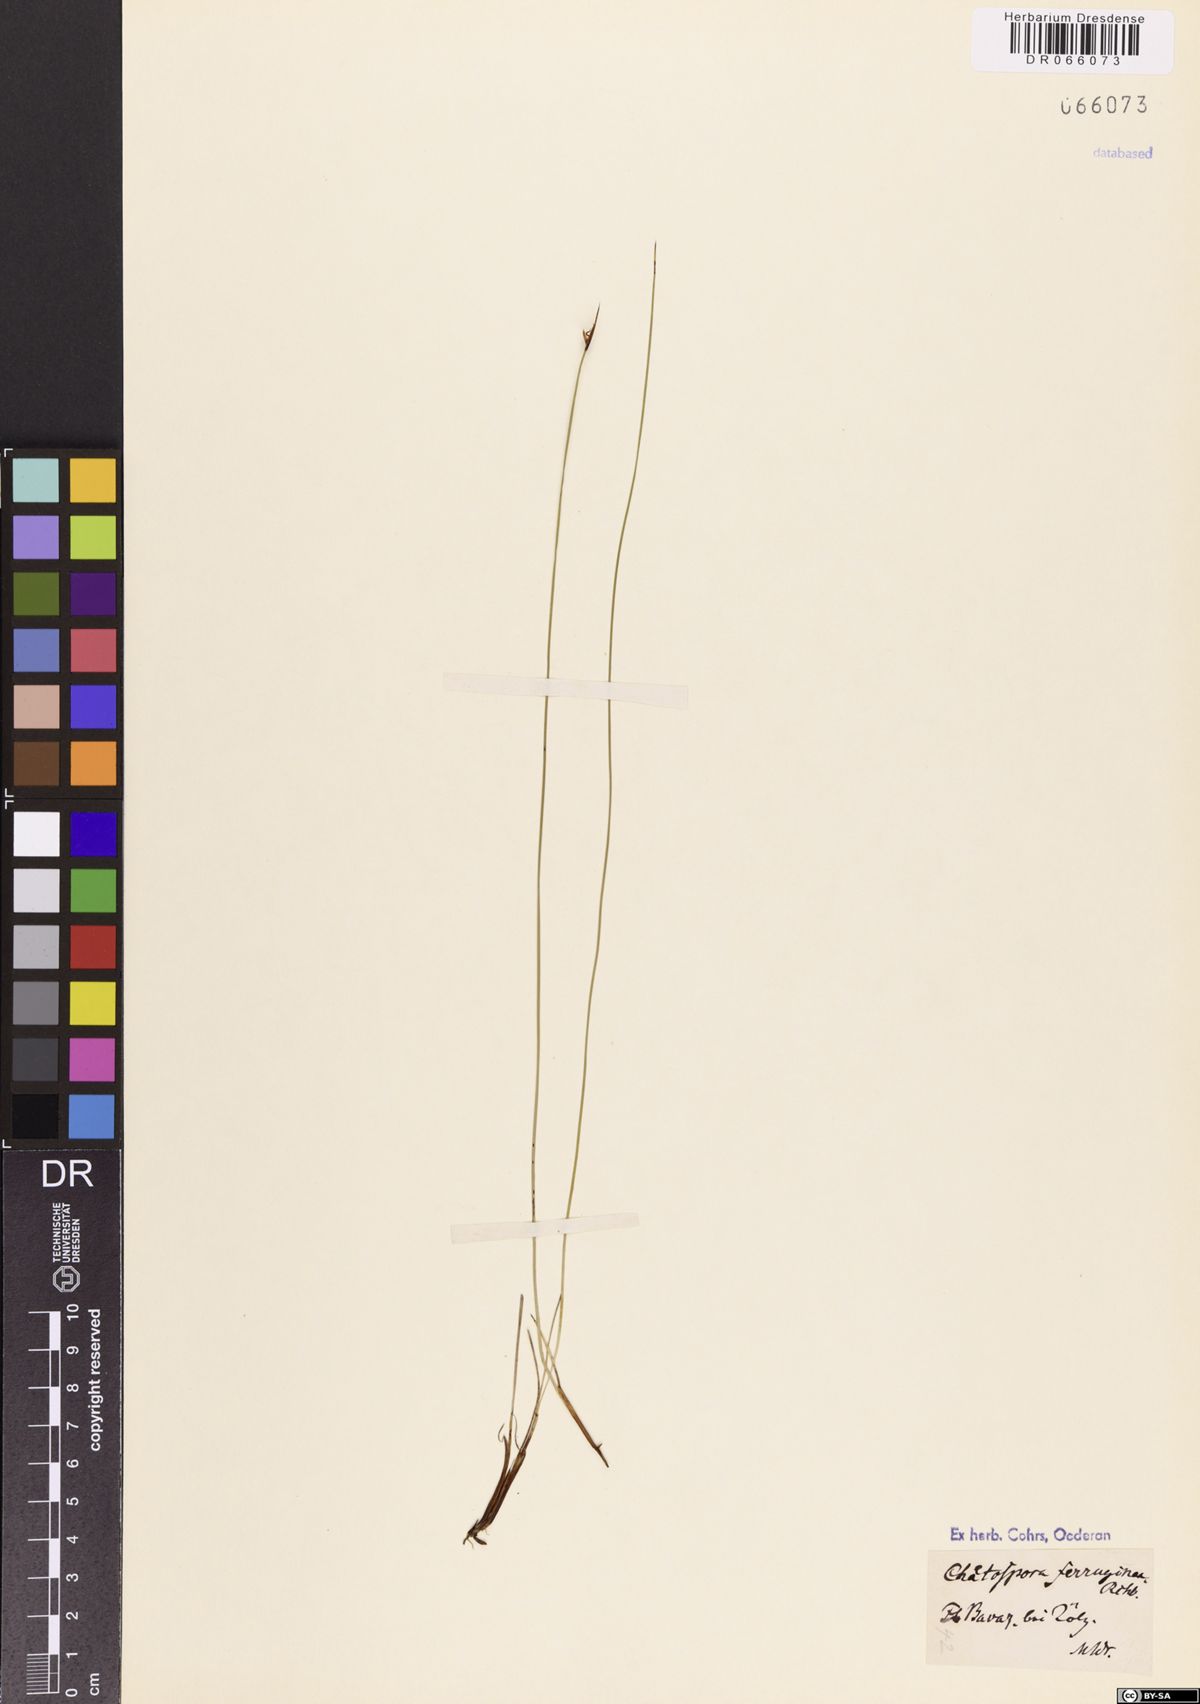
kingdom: Plantae
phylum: Tracheophyta
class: Liliopsida
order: Poales
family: Cyperaceae
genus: Schoenus
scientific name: Schoenus ferrugineus
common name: Brown bog-rush
